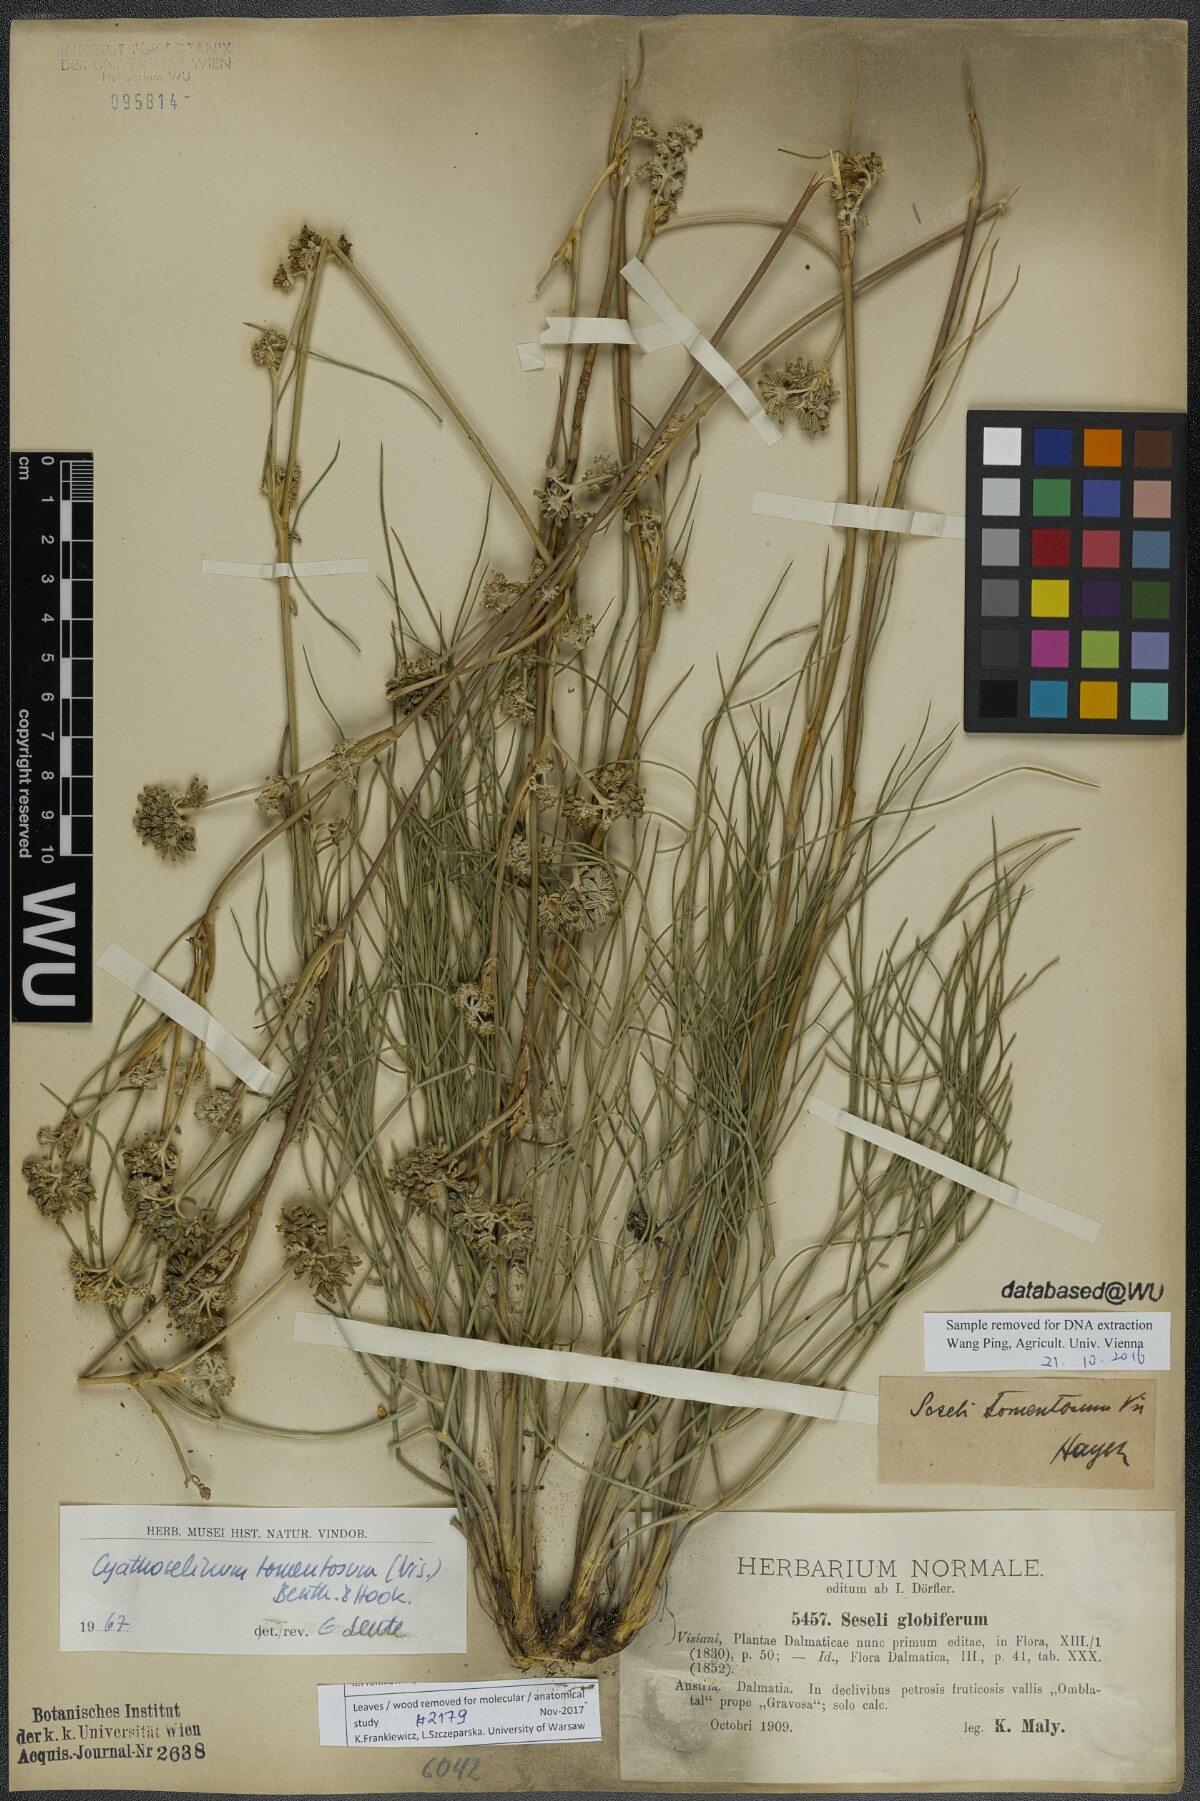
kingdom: Plantae
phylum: Tracheophyta
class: Magnoliopsida
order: Apiales
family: Apiaceae
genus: Cyathoselinum
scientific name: Cyathoselinum tomentosum
